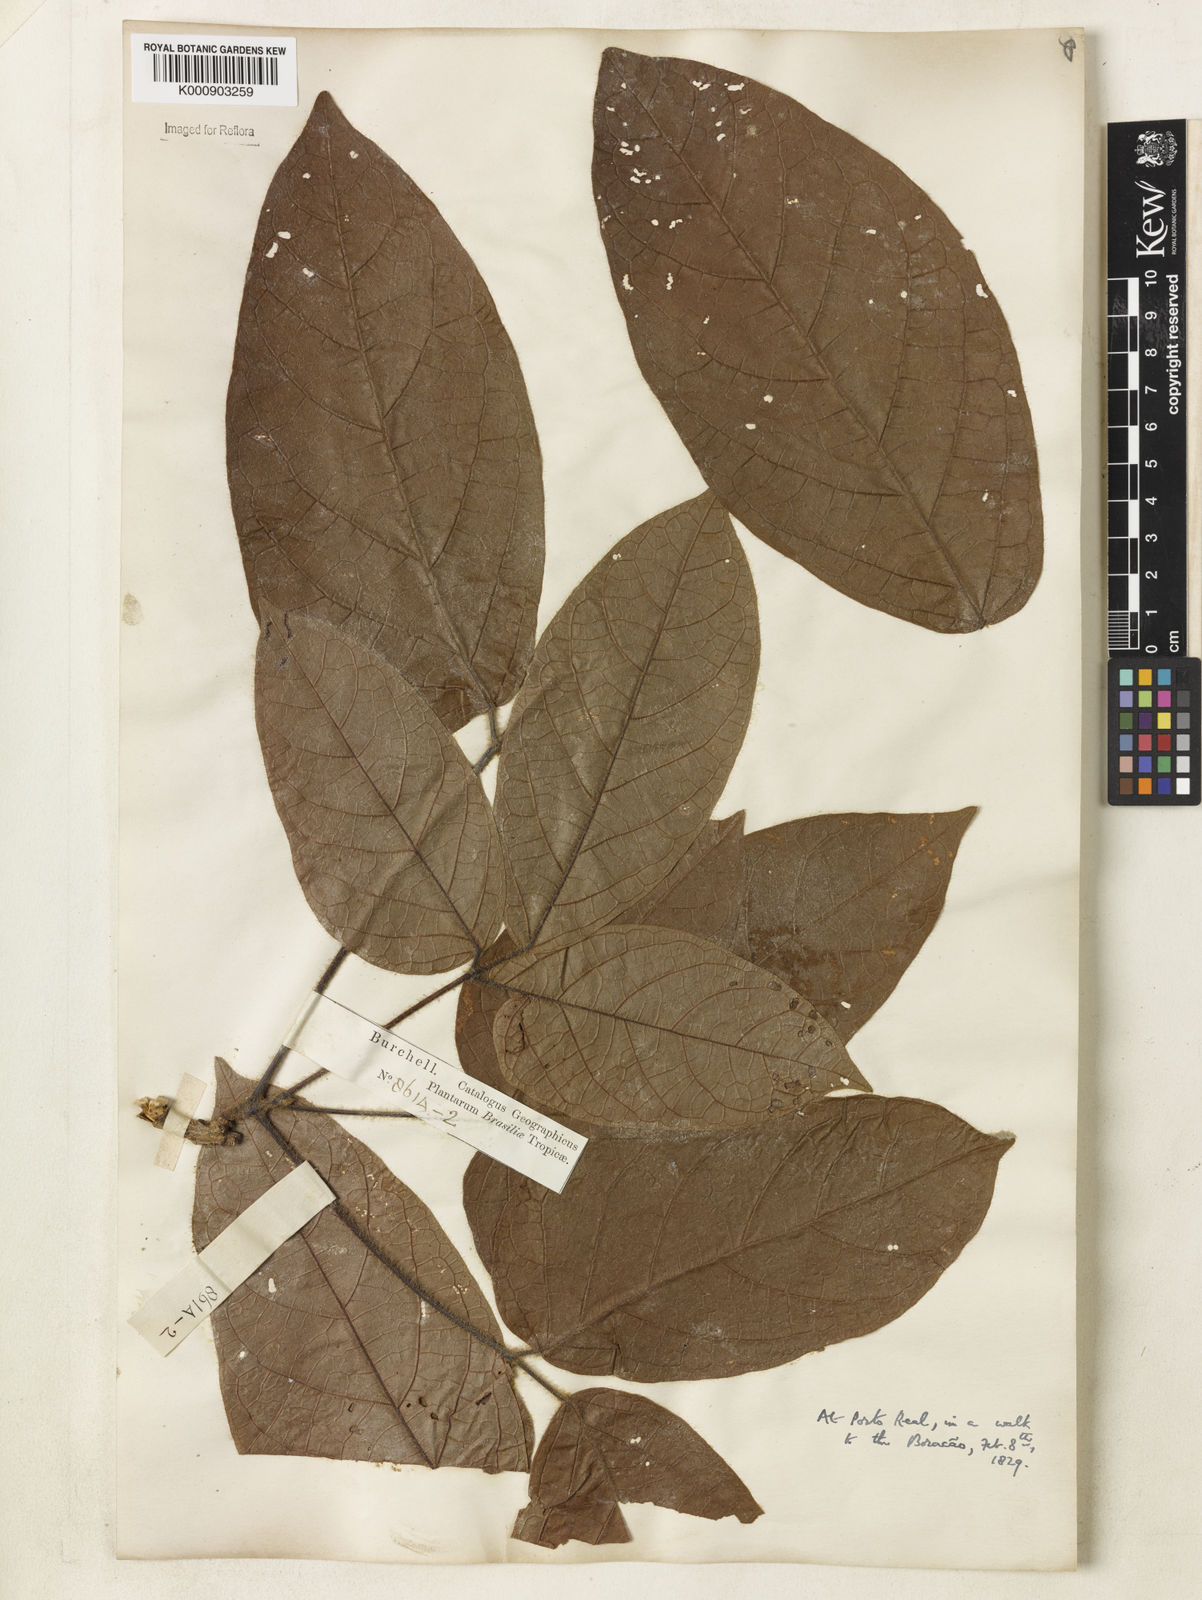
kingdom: Plantae
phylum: Tracheophyta
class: Magnoliopsida
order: Lamiales
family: Bignoniaceae
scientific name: Bignoniaceae
